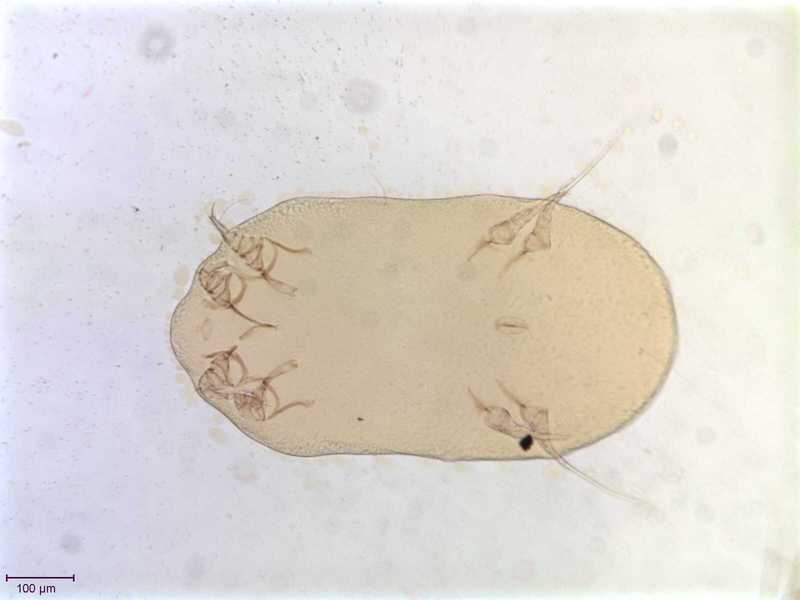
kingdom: Animalia
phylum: Arthropoda
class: Arachnida
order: Sarcoptiformes
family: Gabuciniidae
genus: Gabucinia
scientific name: Gabucinia nisi
